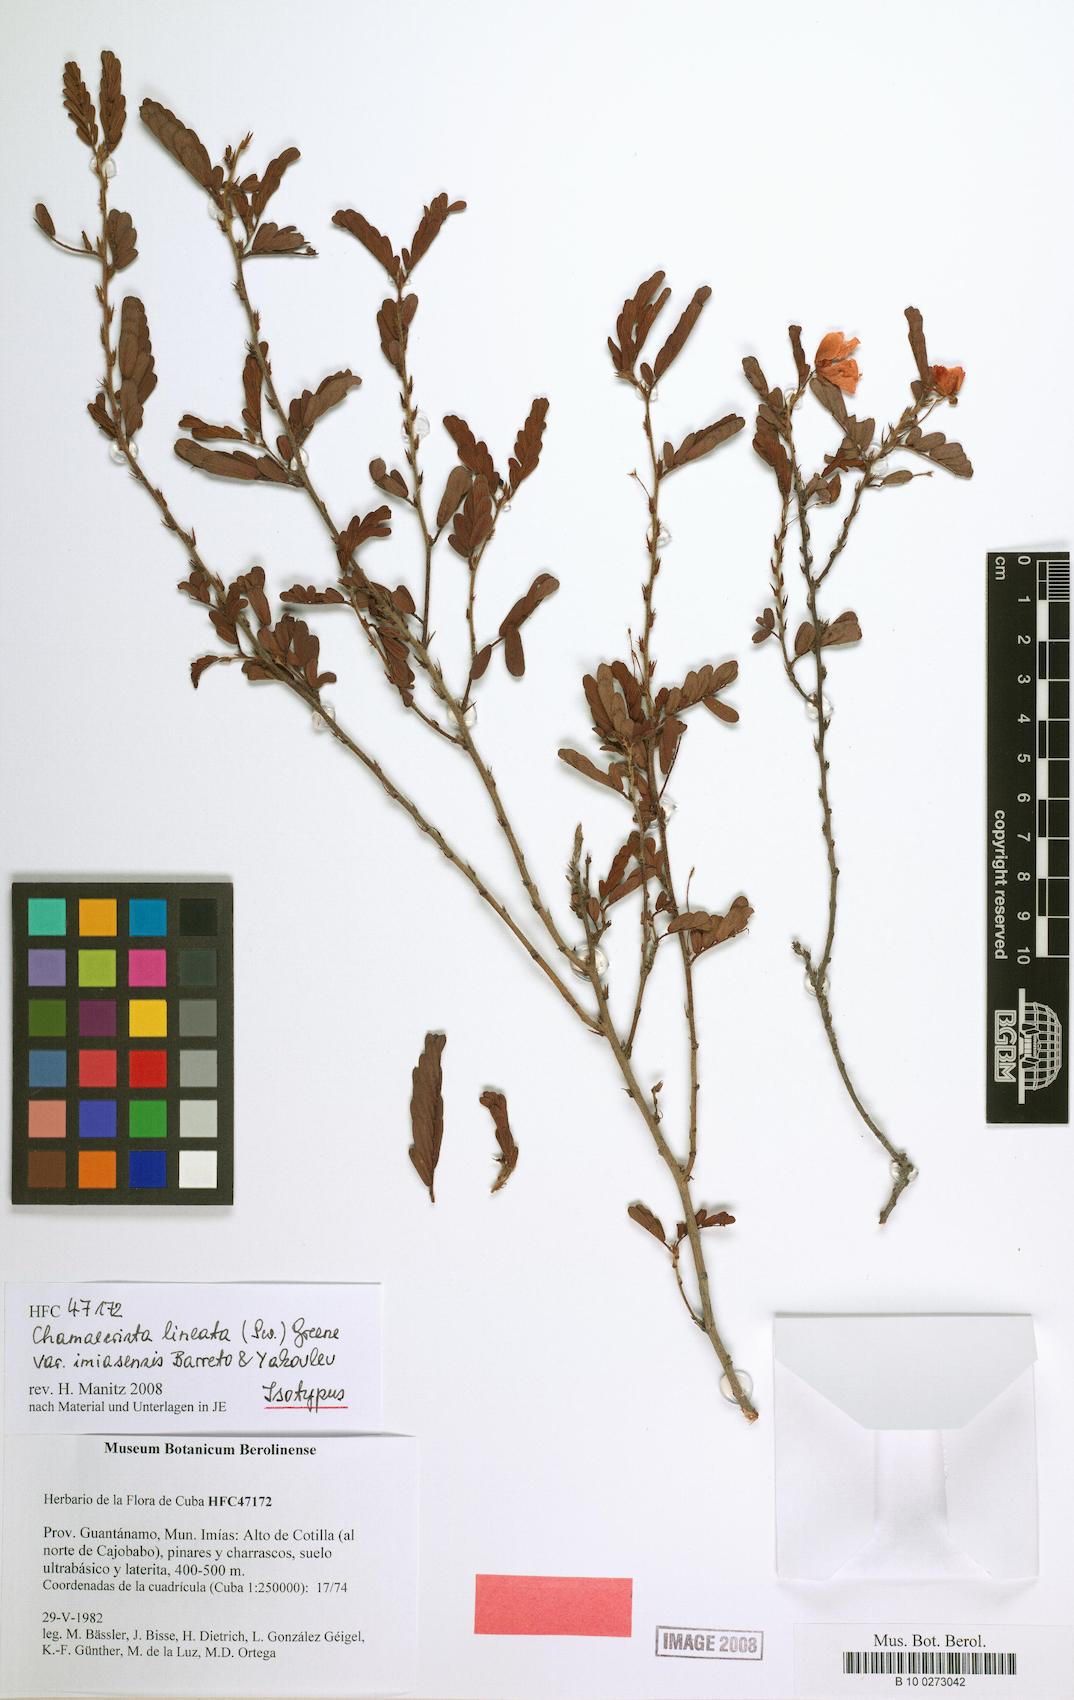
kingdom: Plantae
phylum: Tracheophyta
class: Magnoliopsida
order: Fabales
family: Fabaceae
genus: Chamaecrista
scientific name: Chamaecrista lineata
